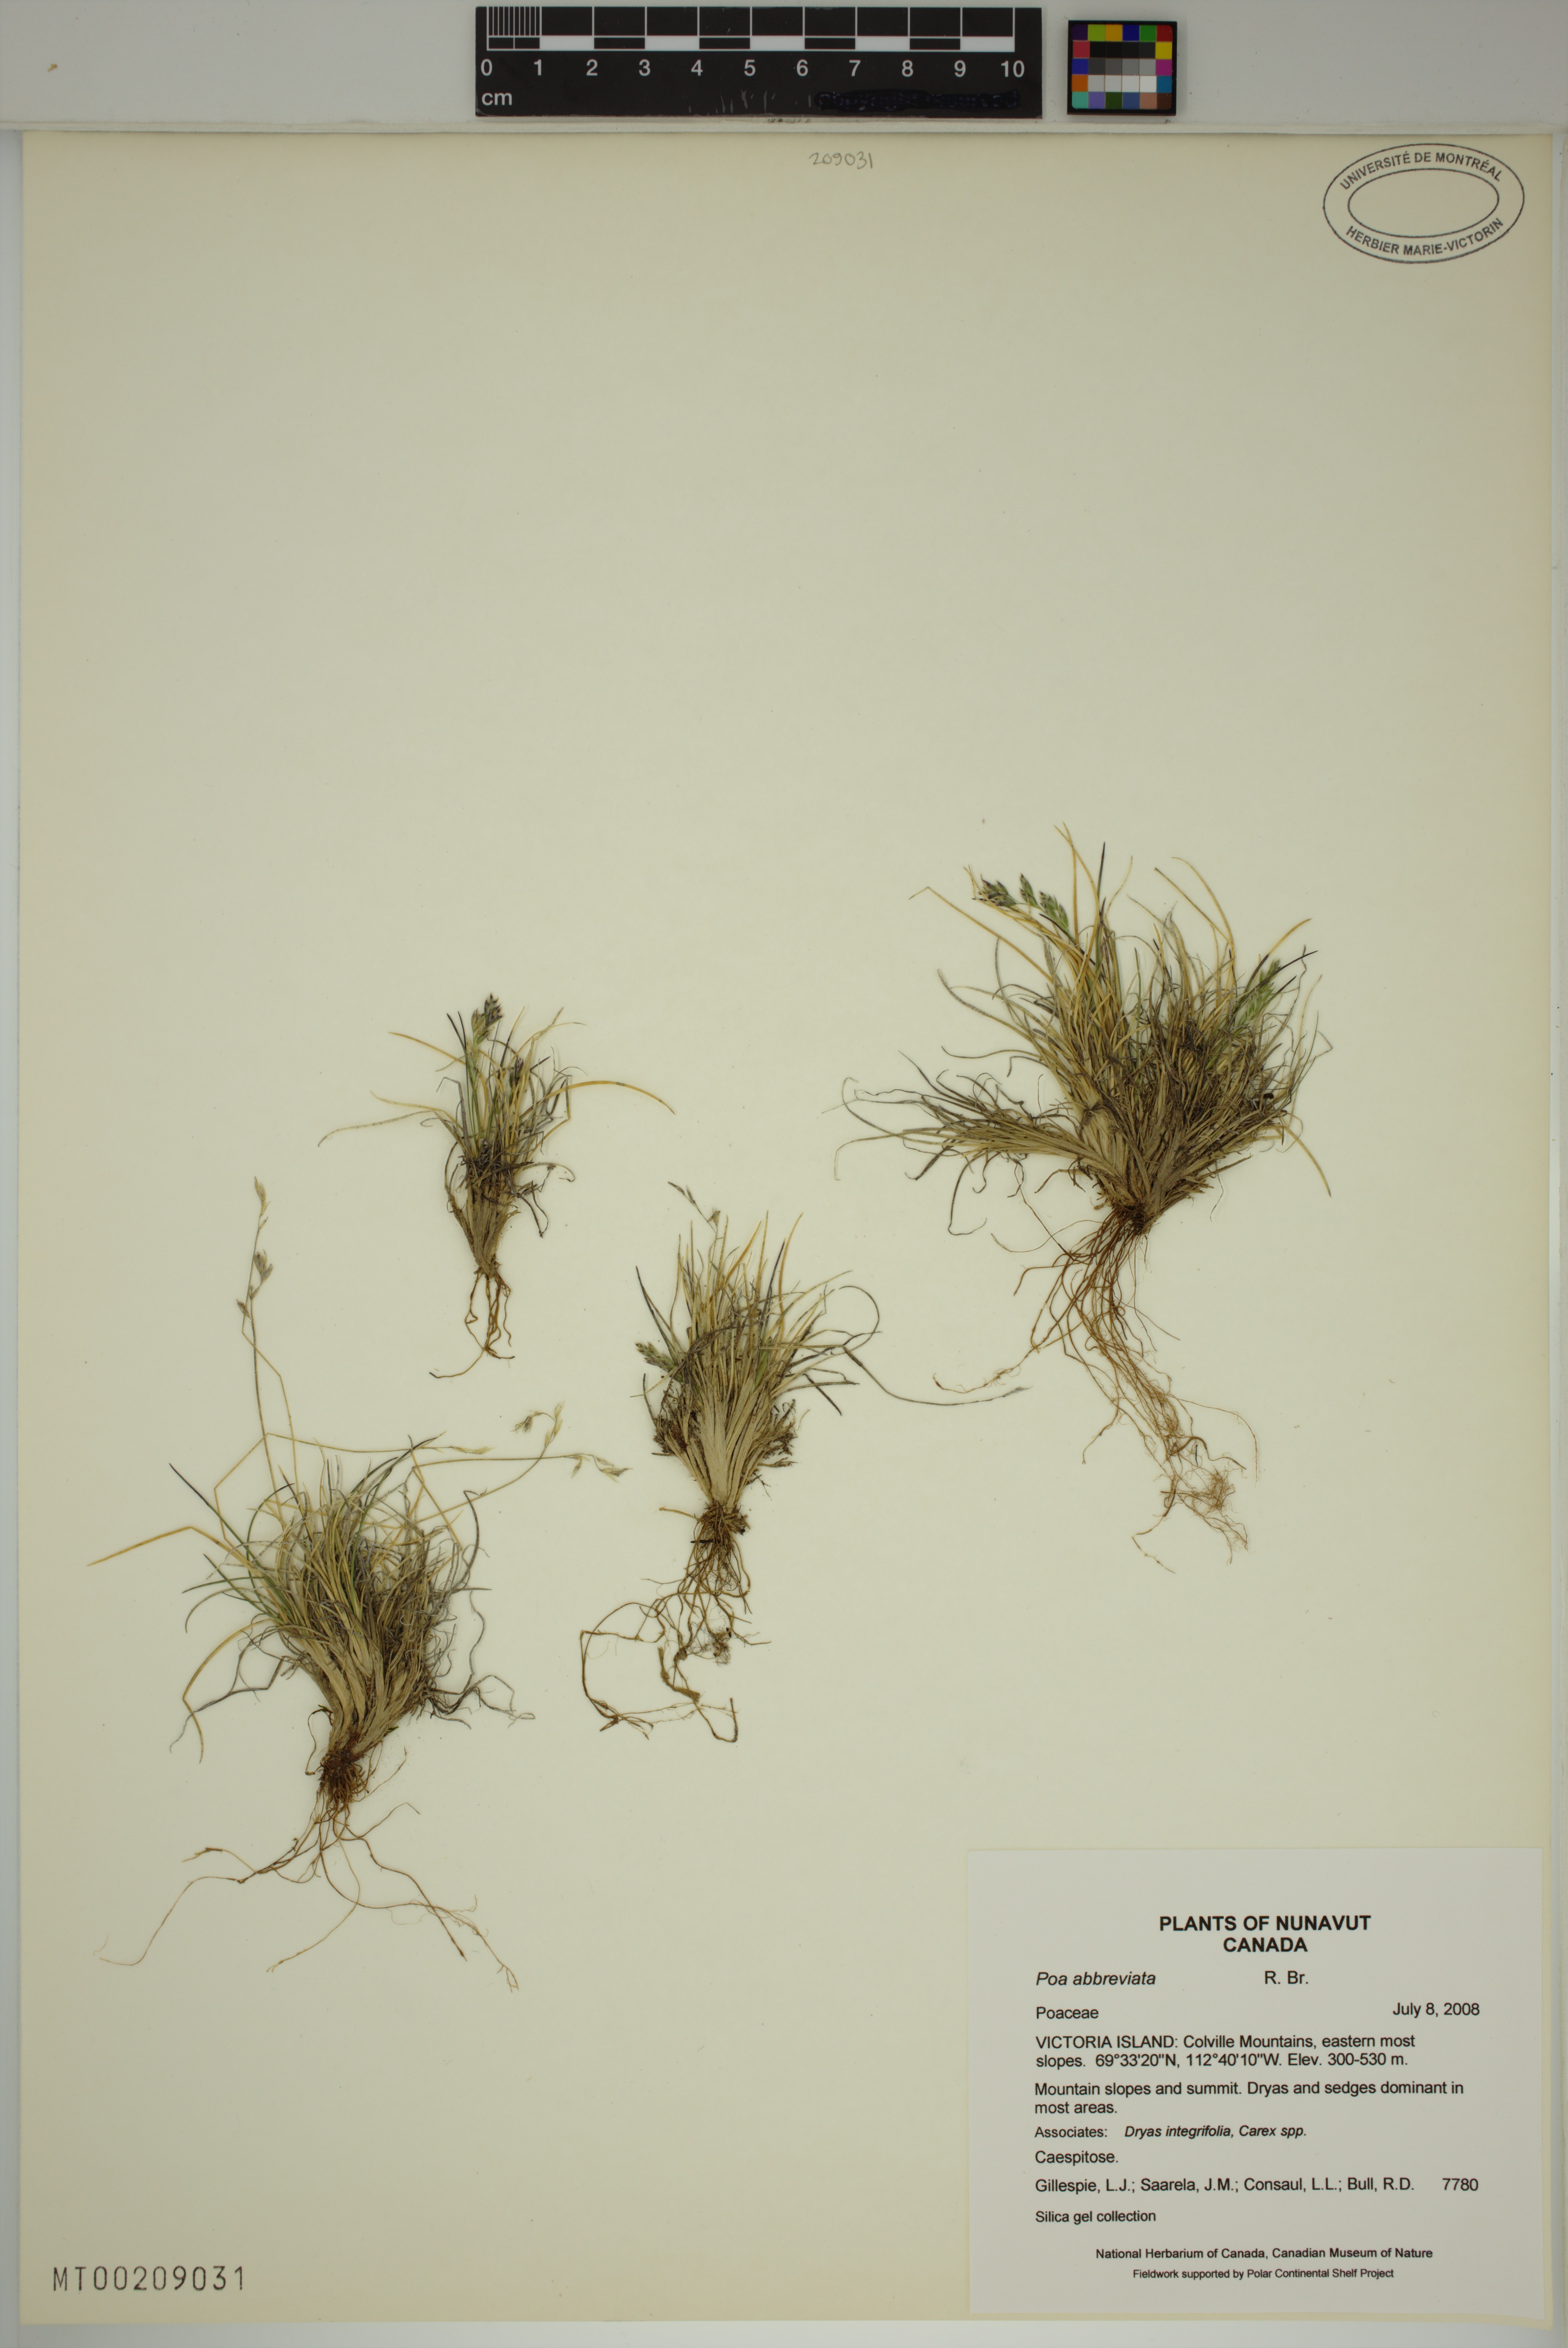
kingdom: Plantae
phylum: Tracheophyta
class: Liliopsida
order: Poales
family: Poaceae
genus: Poa
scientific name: Poa abbreviata
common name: Abbreviated bluegrass
